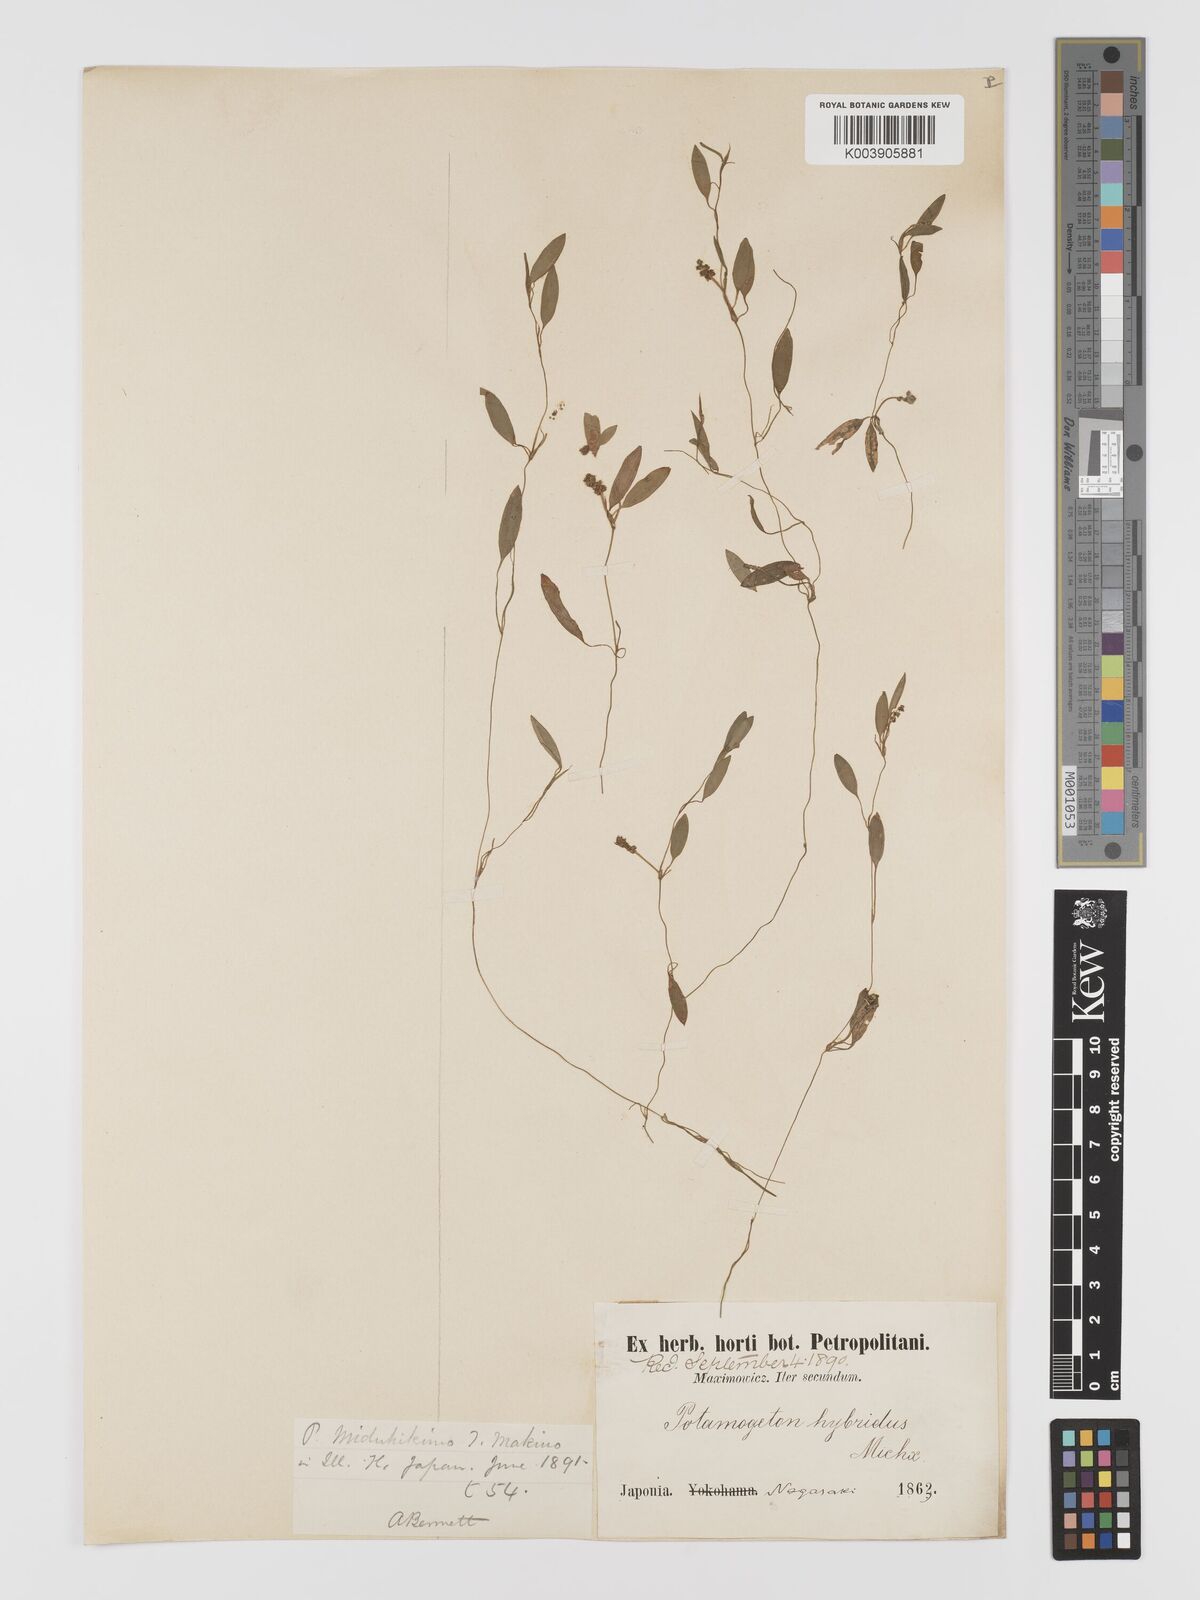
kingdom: Plantae
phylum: Tracheophyta
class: Liliopsida
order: Alismatales
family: Potamogetonaceae
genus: Potamogeton
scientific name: Potamogeton octandrus
